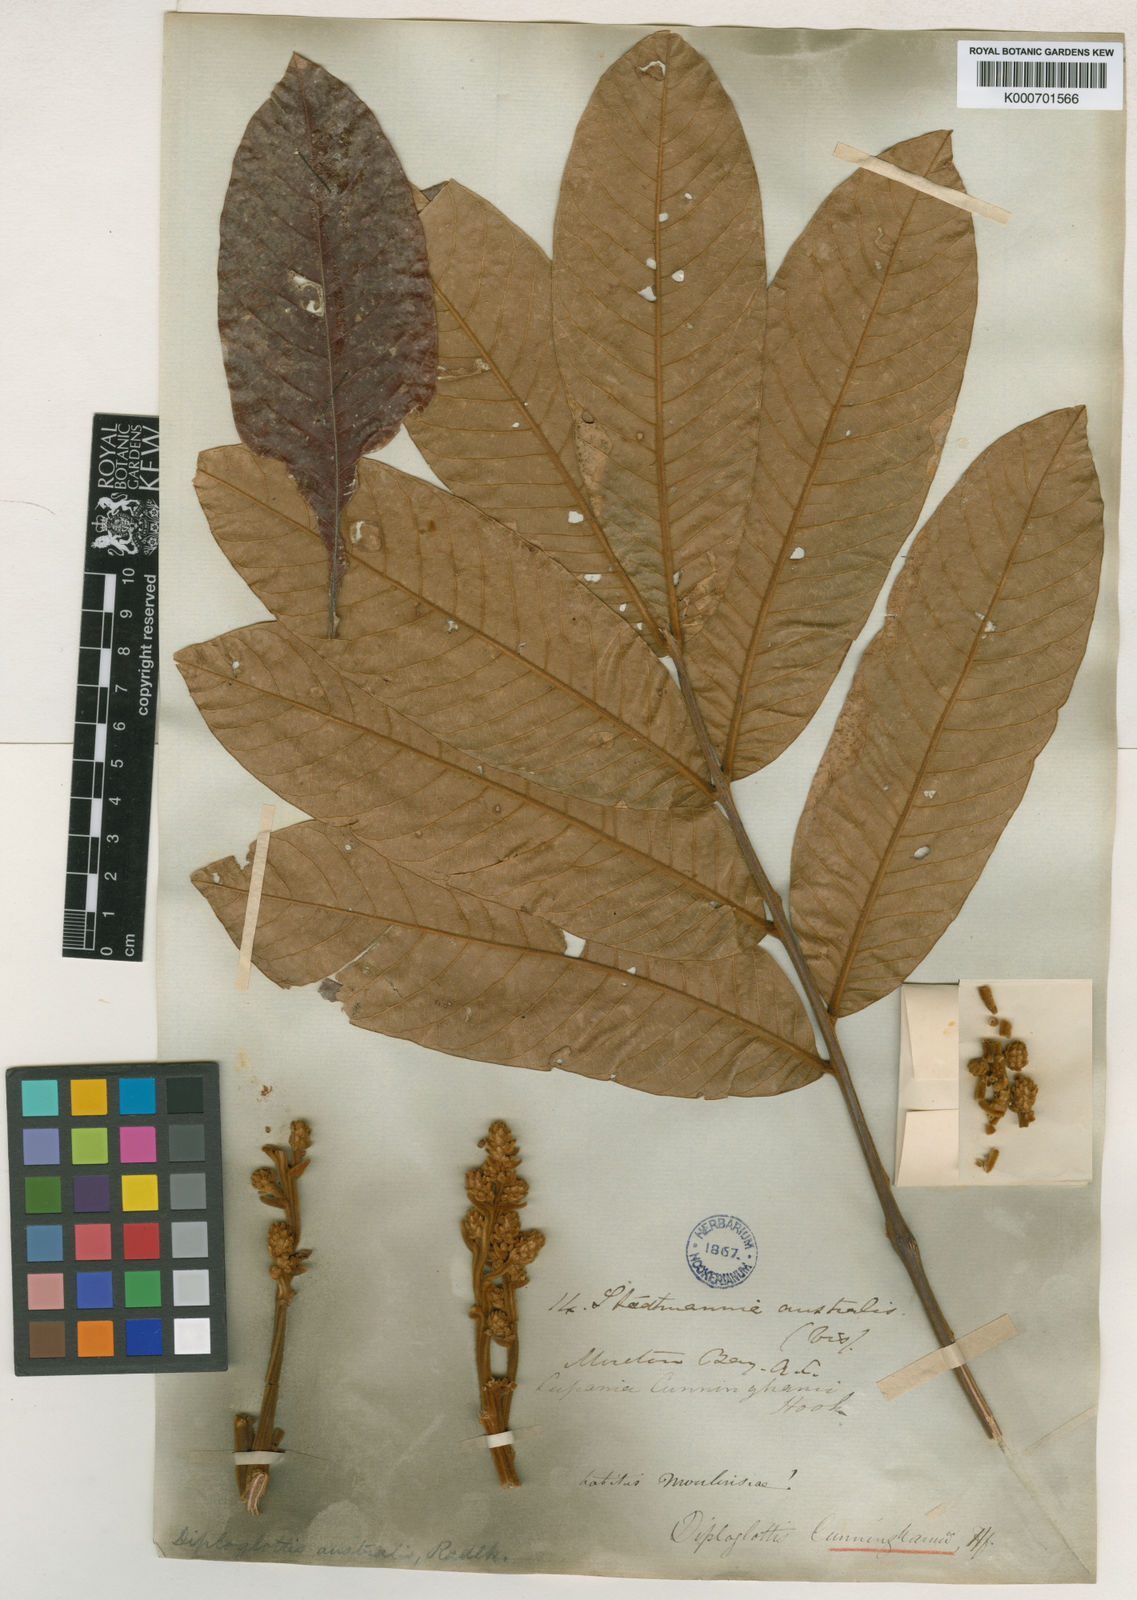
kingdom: Plantae
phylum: Tracheophyta
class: Magnoliopsida
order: Sapindales
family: Sapindaceae
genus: Diploglottis
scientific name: Diploglottis australis
